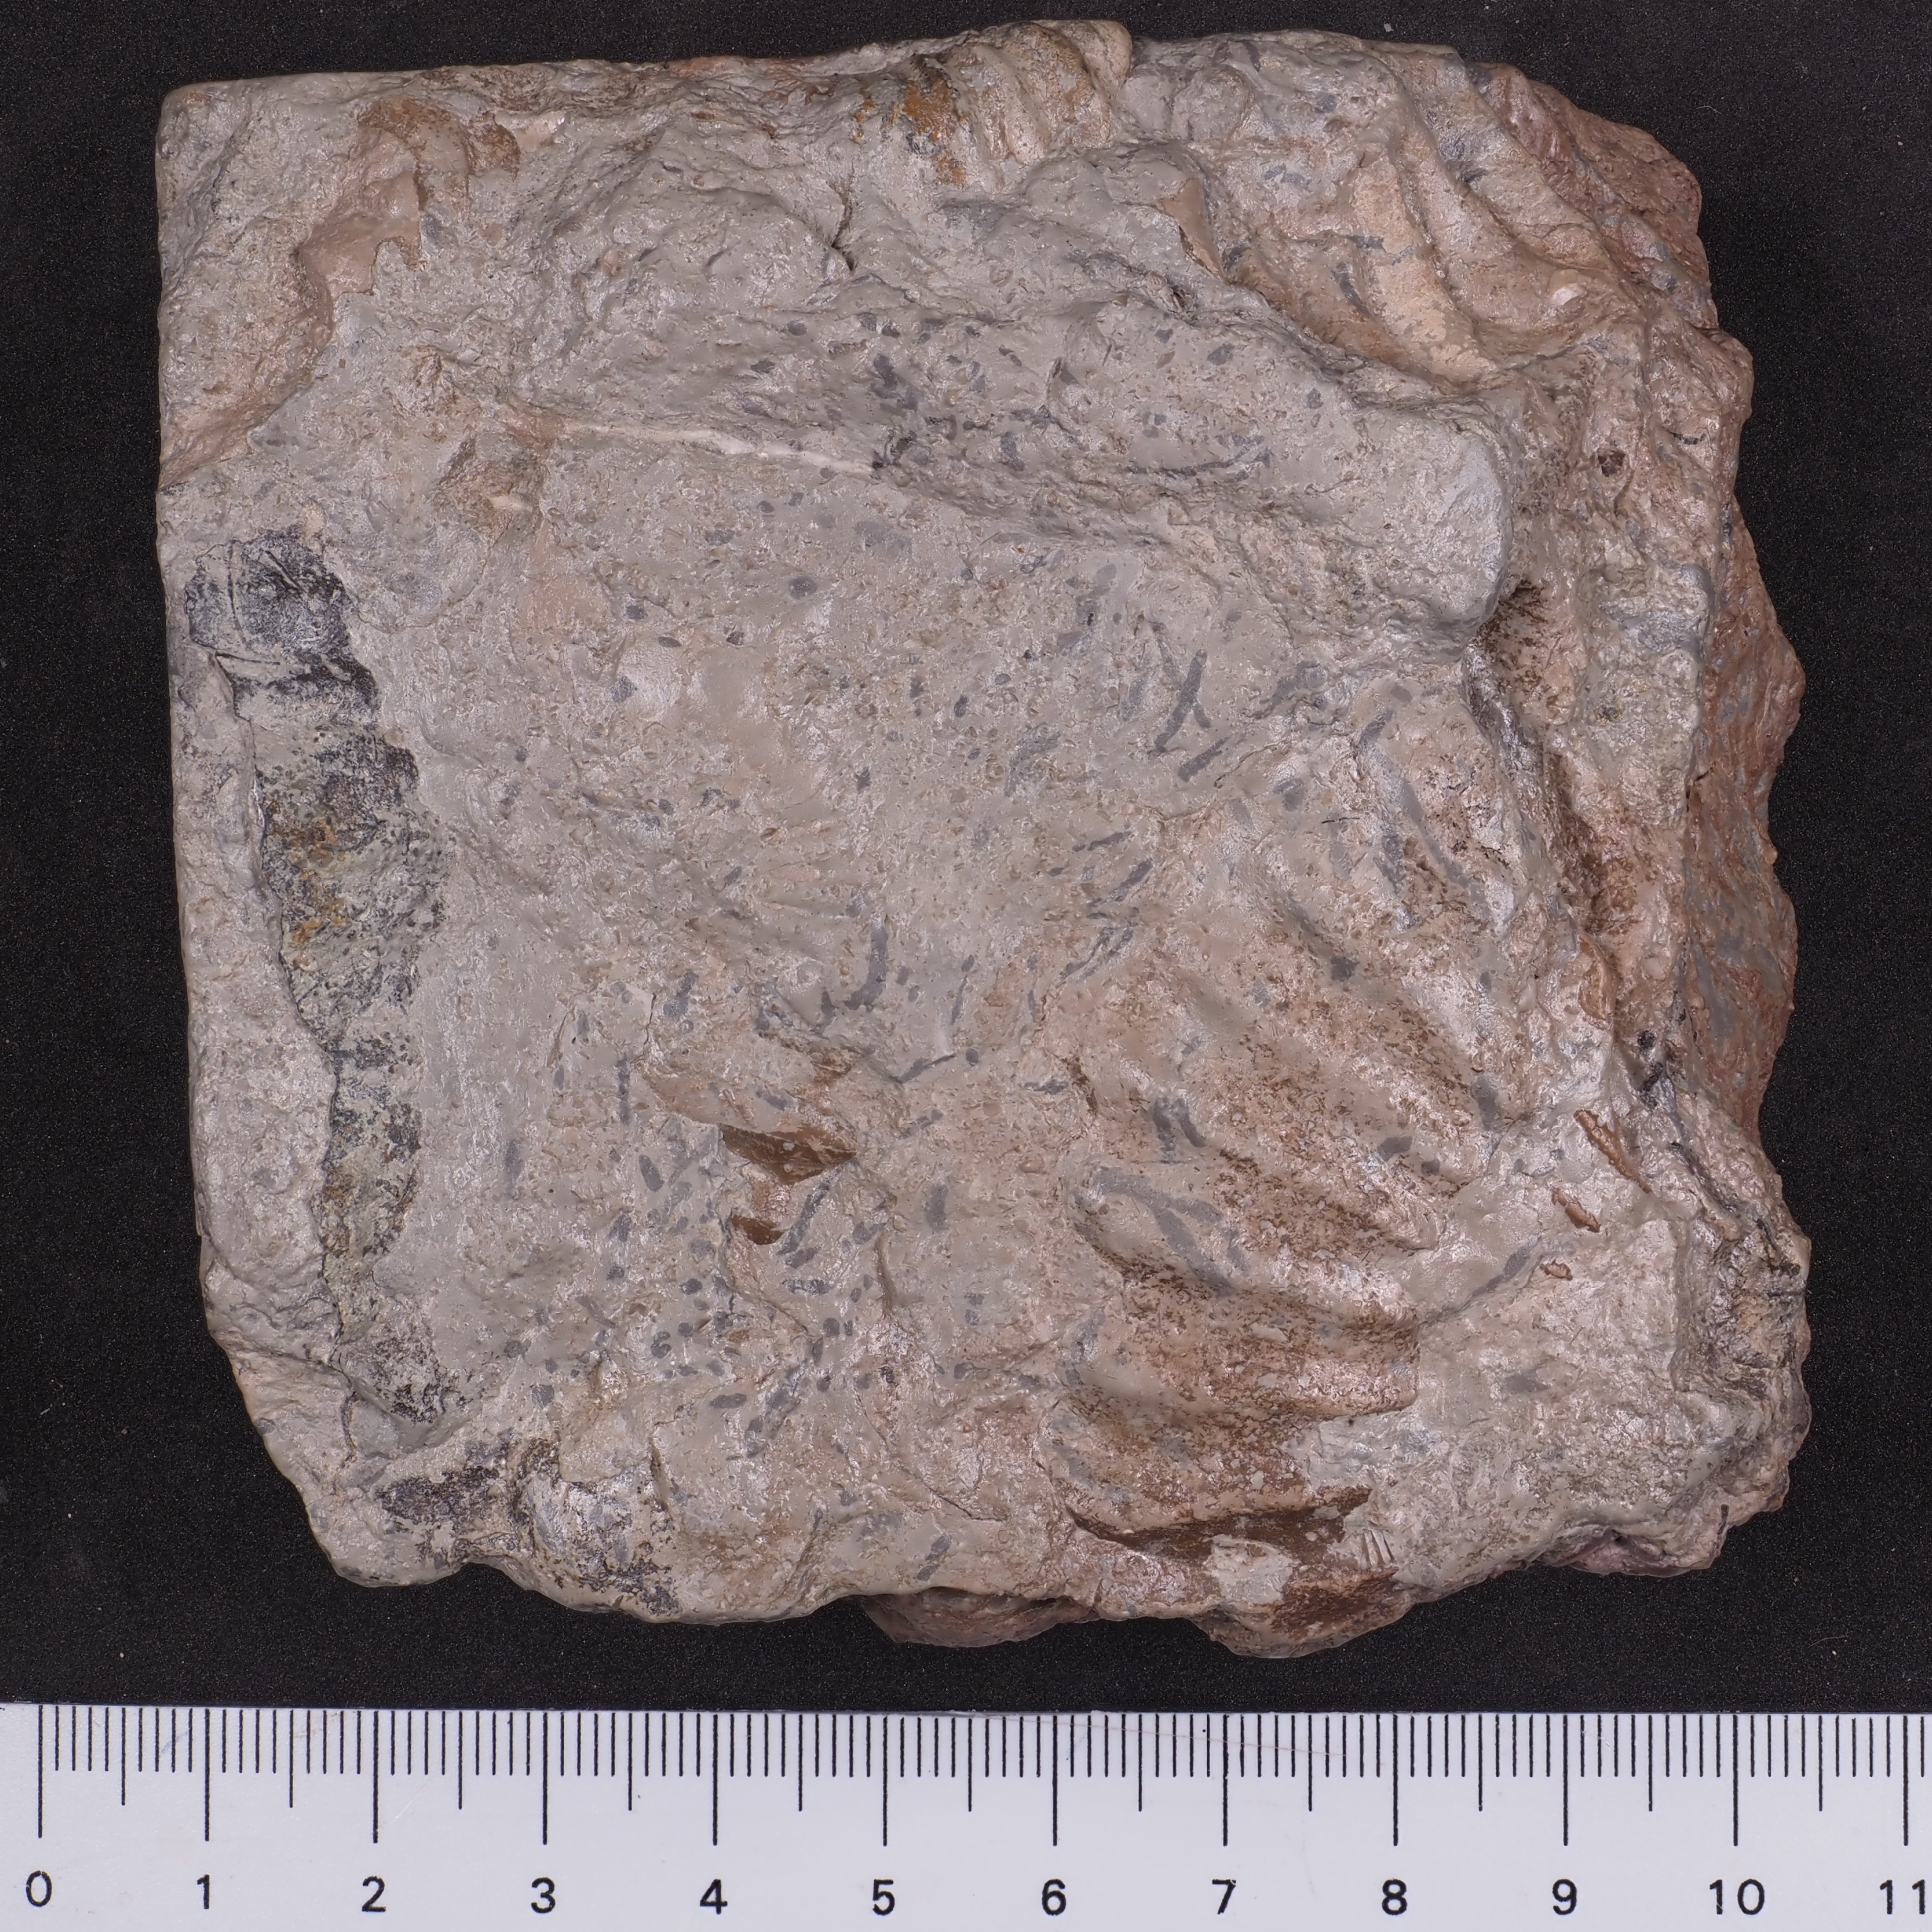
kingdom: Animalia
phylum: Mollusca
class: Bivalvia
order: Pectinida
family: Oxytomidae
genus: Oxytoma
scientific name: Oxytoma
